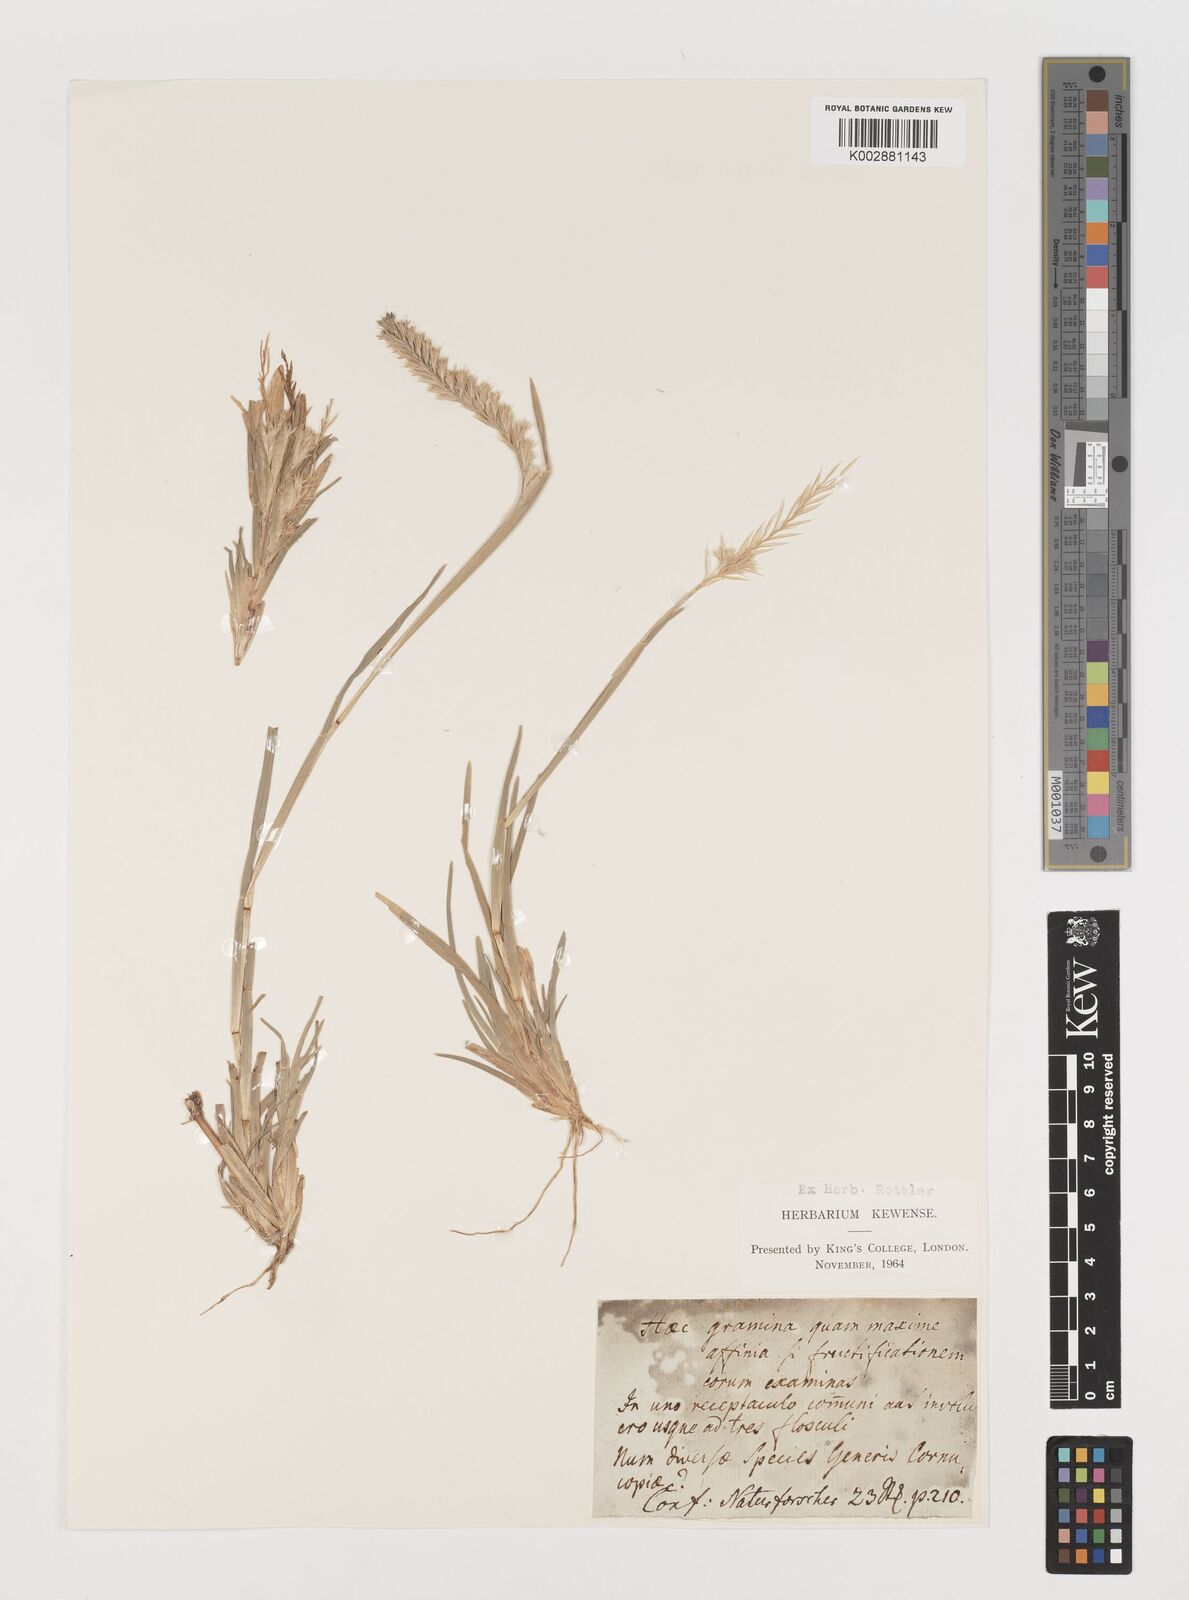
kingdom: Plantae
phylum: Tracheophyta
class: Liliopsida
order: Poales
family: Poaceae
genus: Pommereulla
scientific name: Pommereulla cornucopiae
